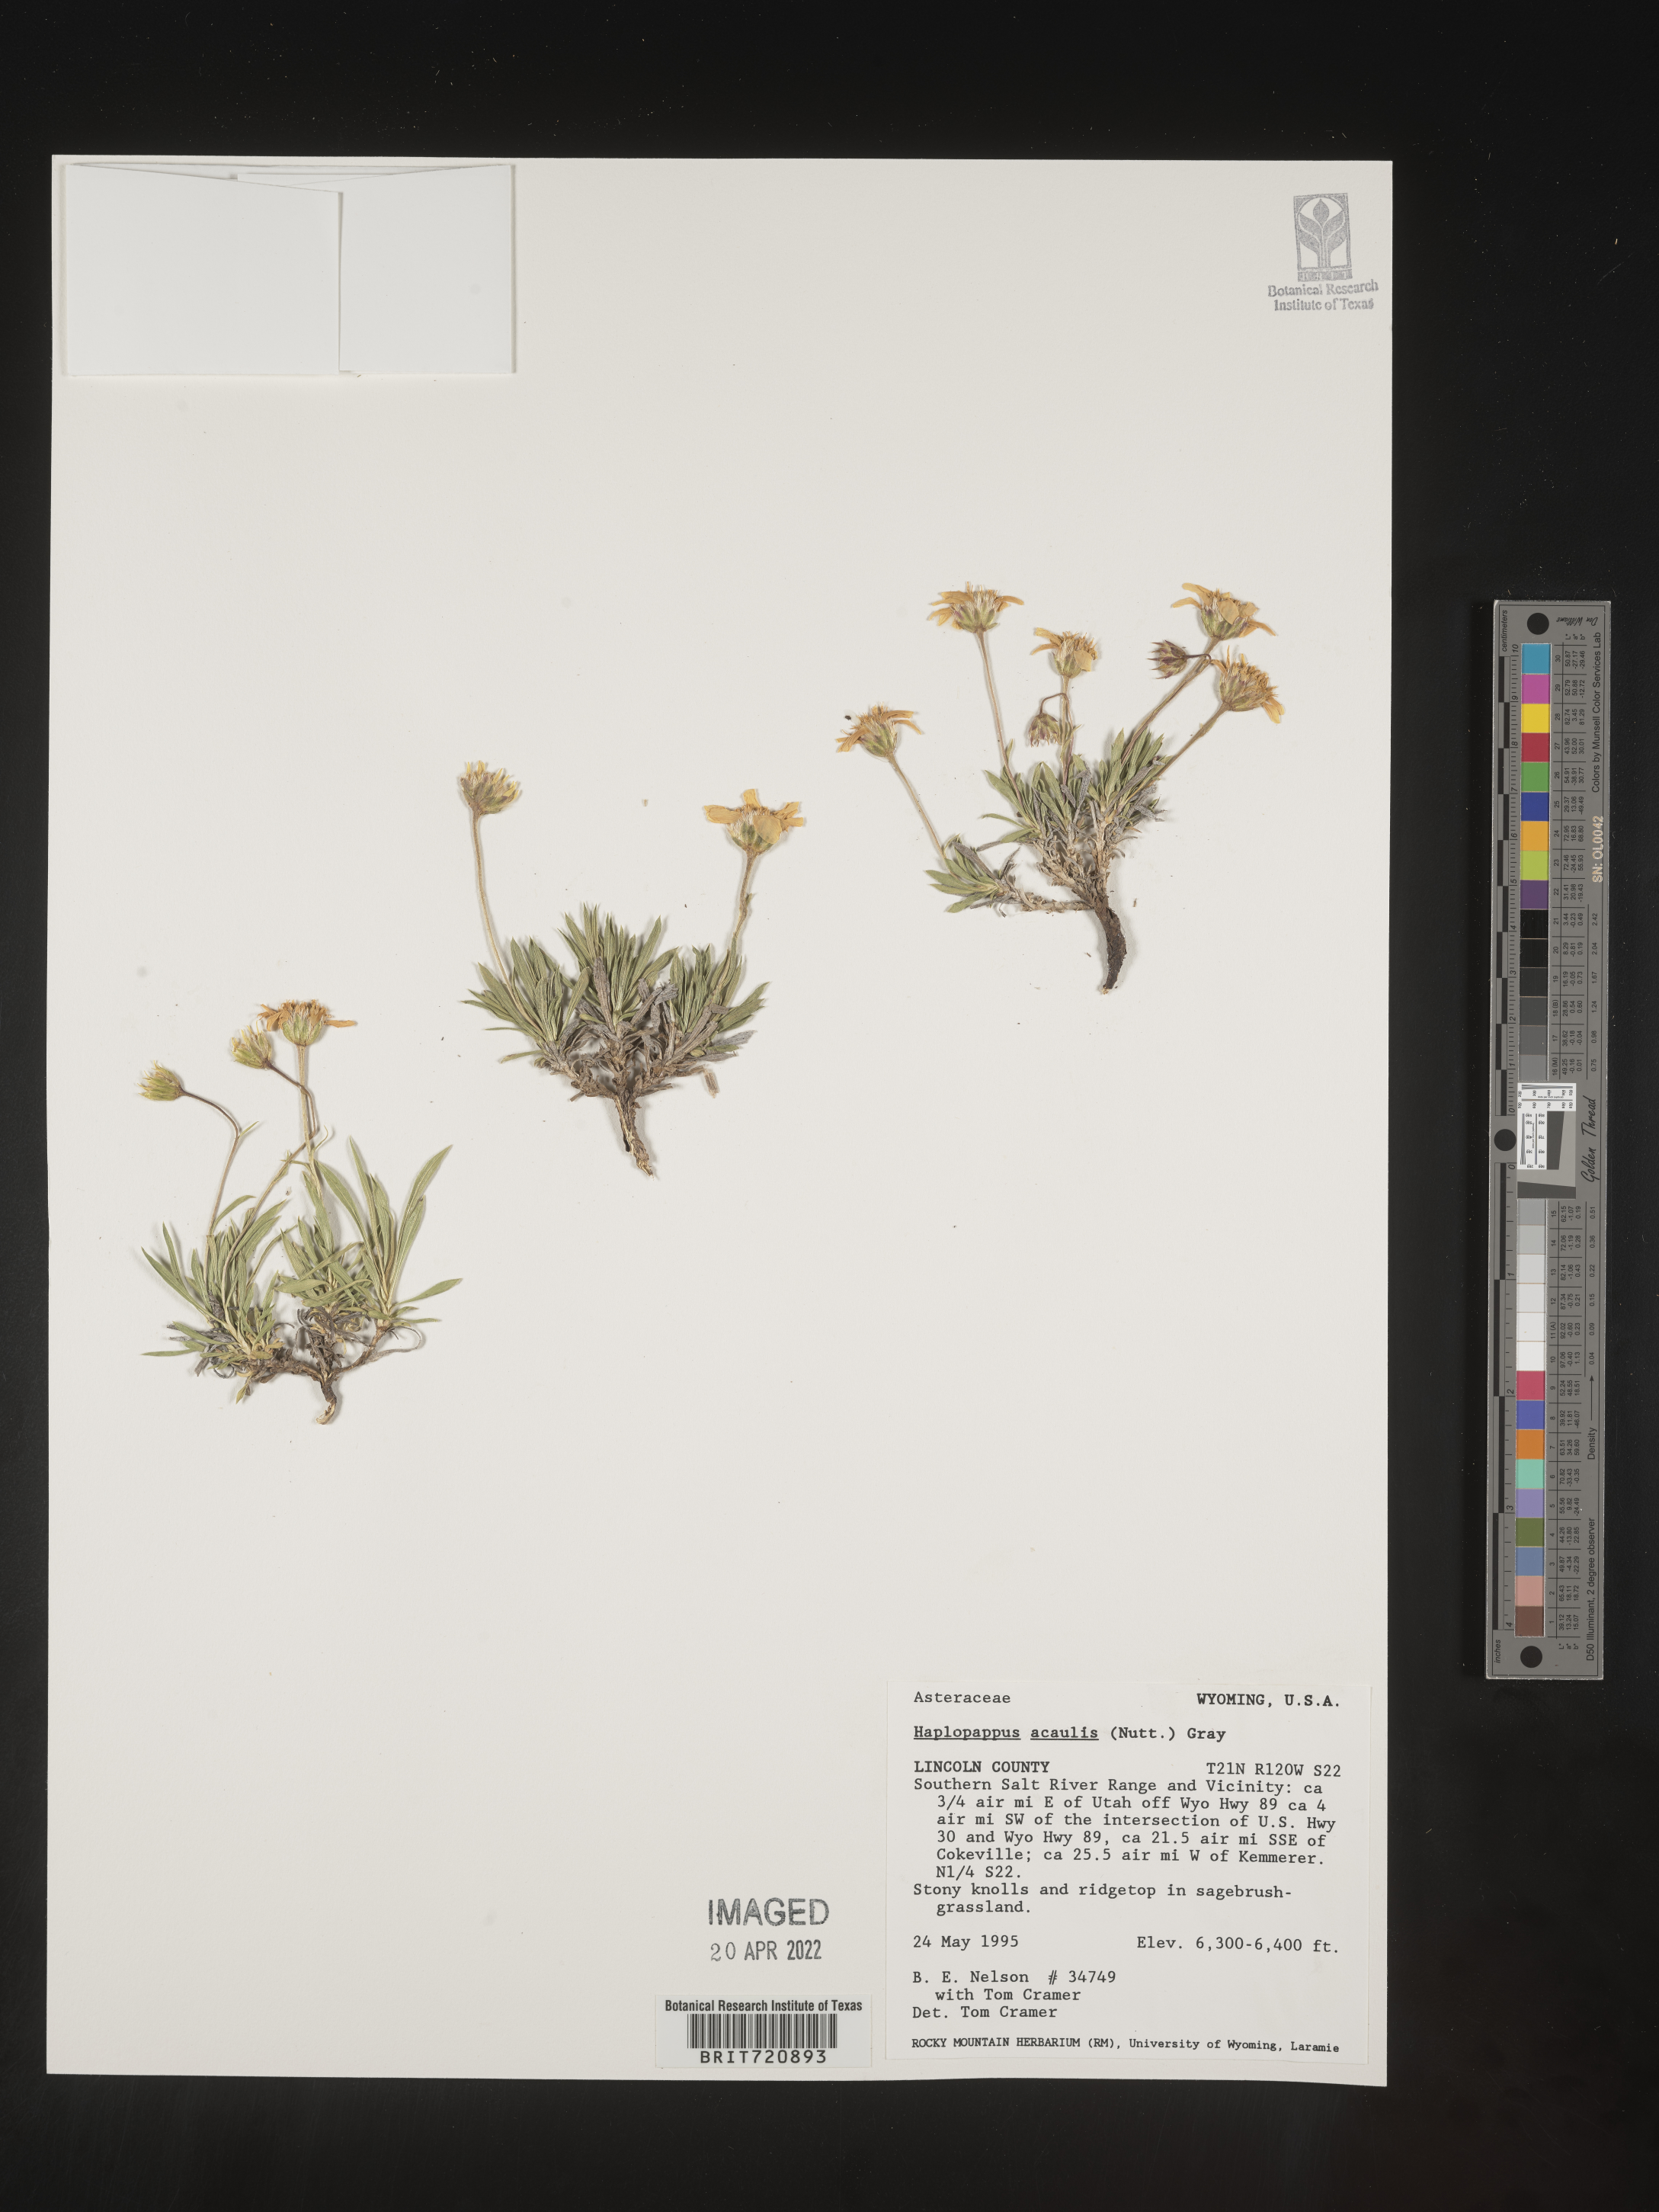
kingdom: Plantae
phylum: Tracheophyta
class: Magnoliopsida
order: Asterales
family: Asteraceae
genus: Haplopappus
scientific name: Haplopappus
